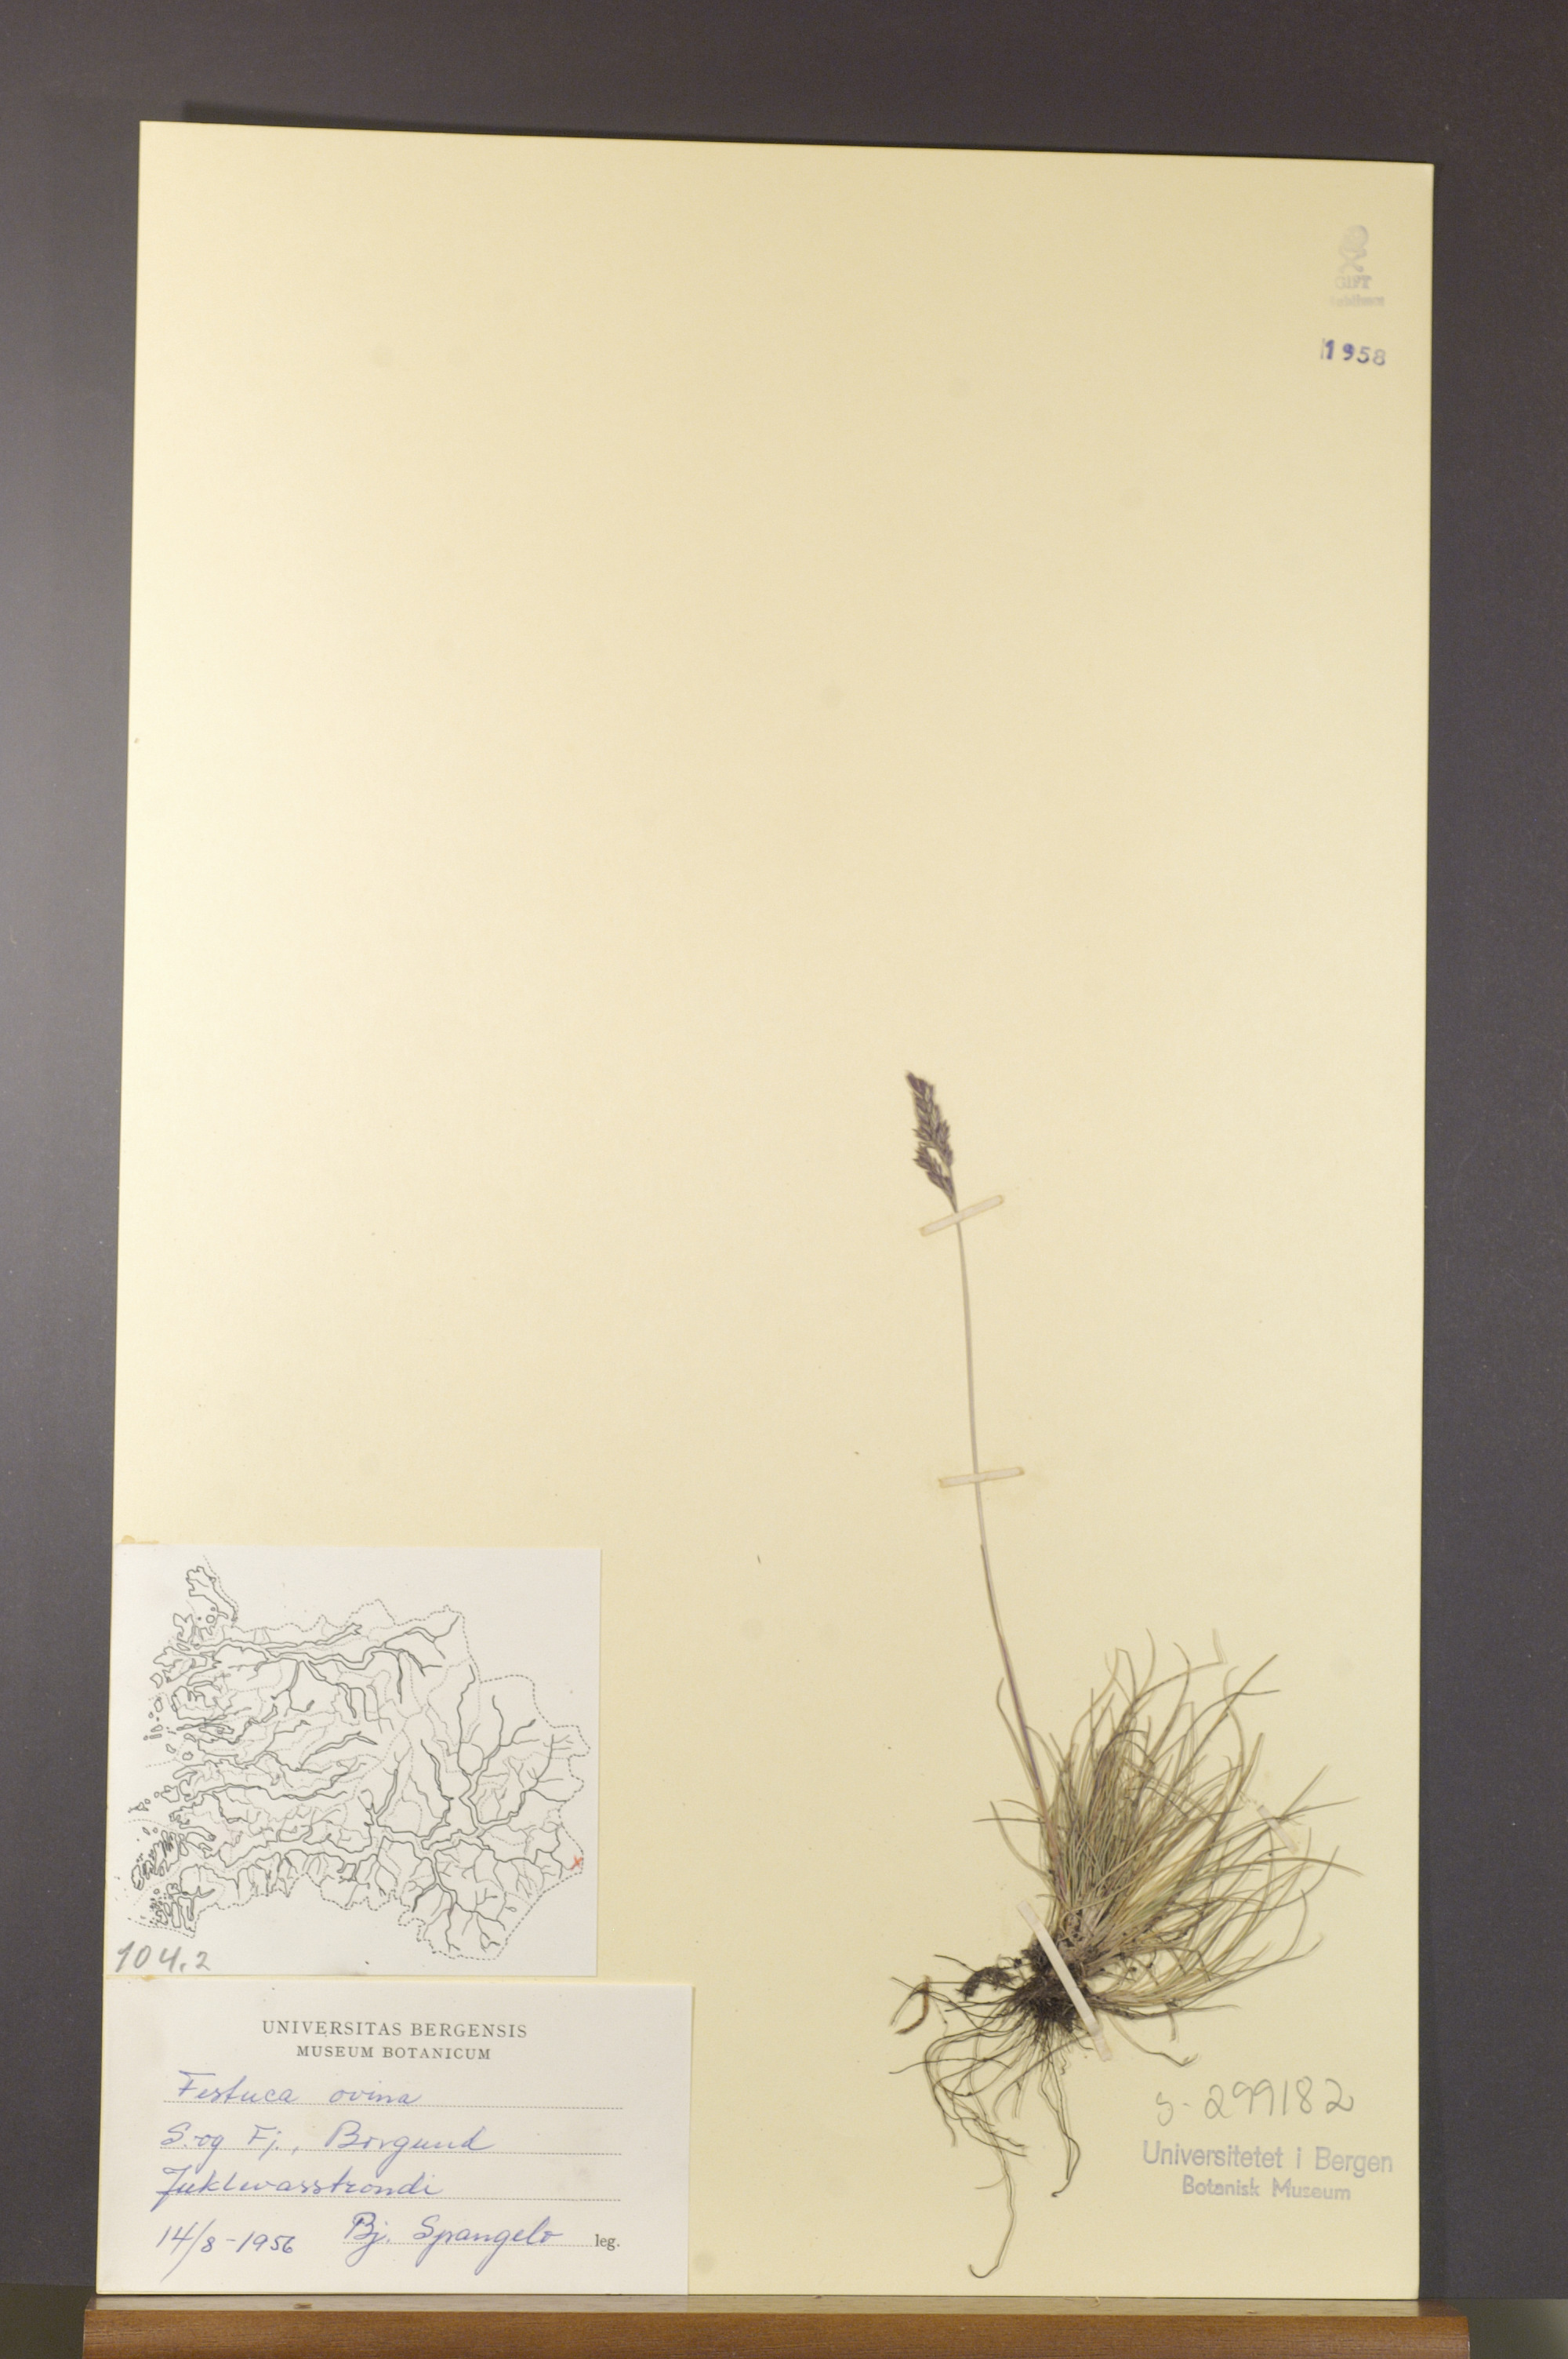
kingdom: Plantae
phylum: Tracheophyta
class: Liliopsida
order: Poales
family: Poaceae
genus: Festuca
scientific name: Festuca ovina
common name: Sheep fescue
